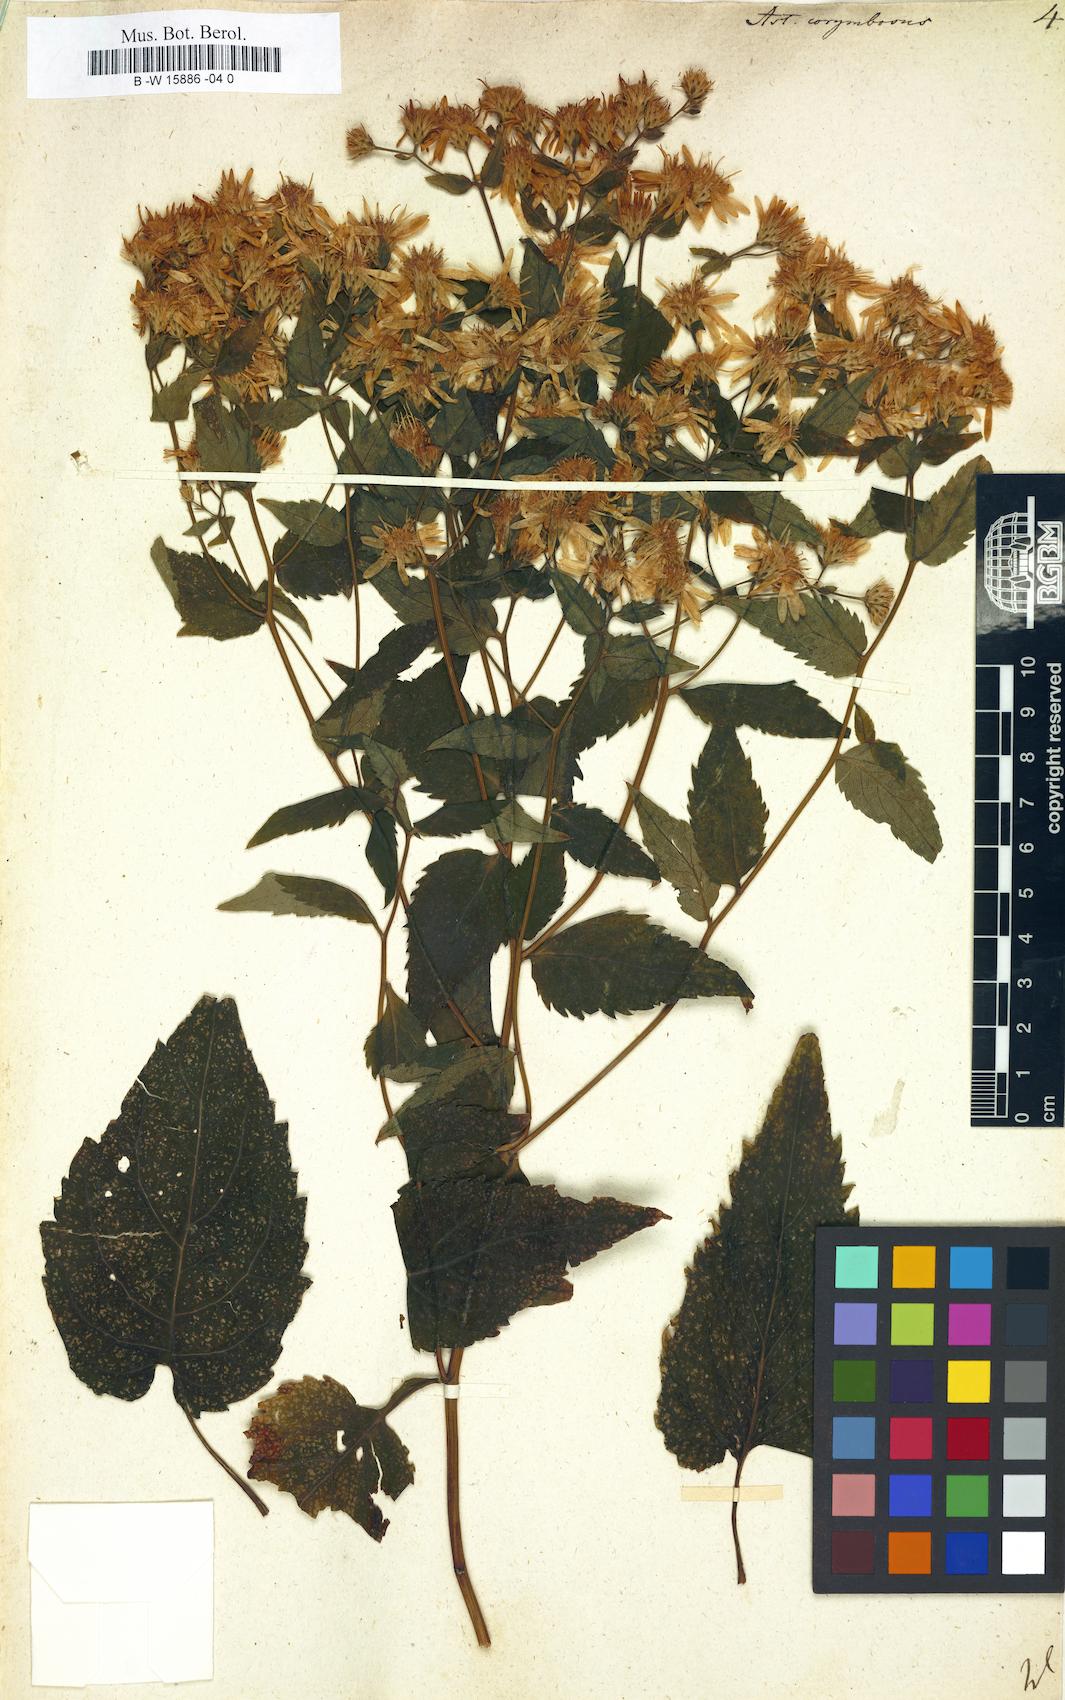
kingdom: Plantae
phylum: Tracheophyta
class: Magnoliopsida
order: Asterales
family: Asteraceae
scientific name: Asteraceae
